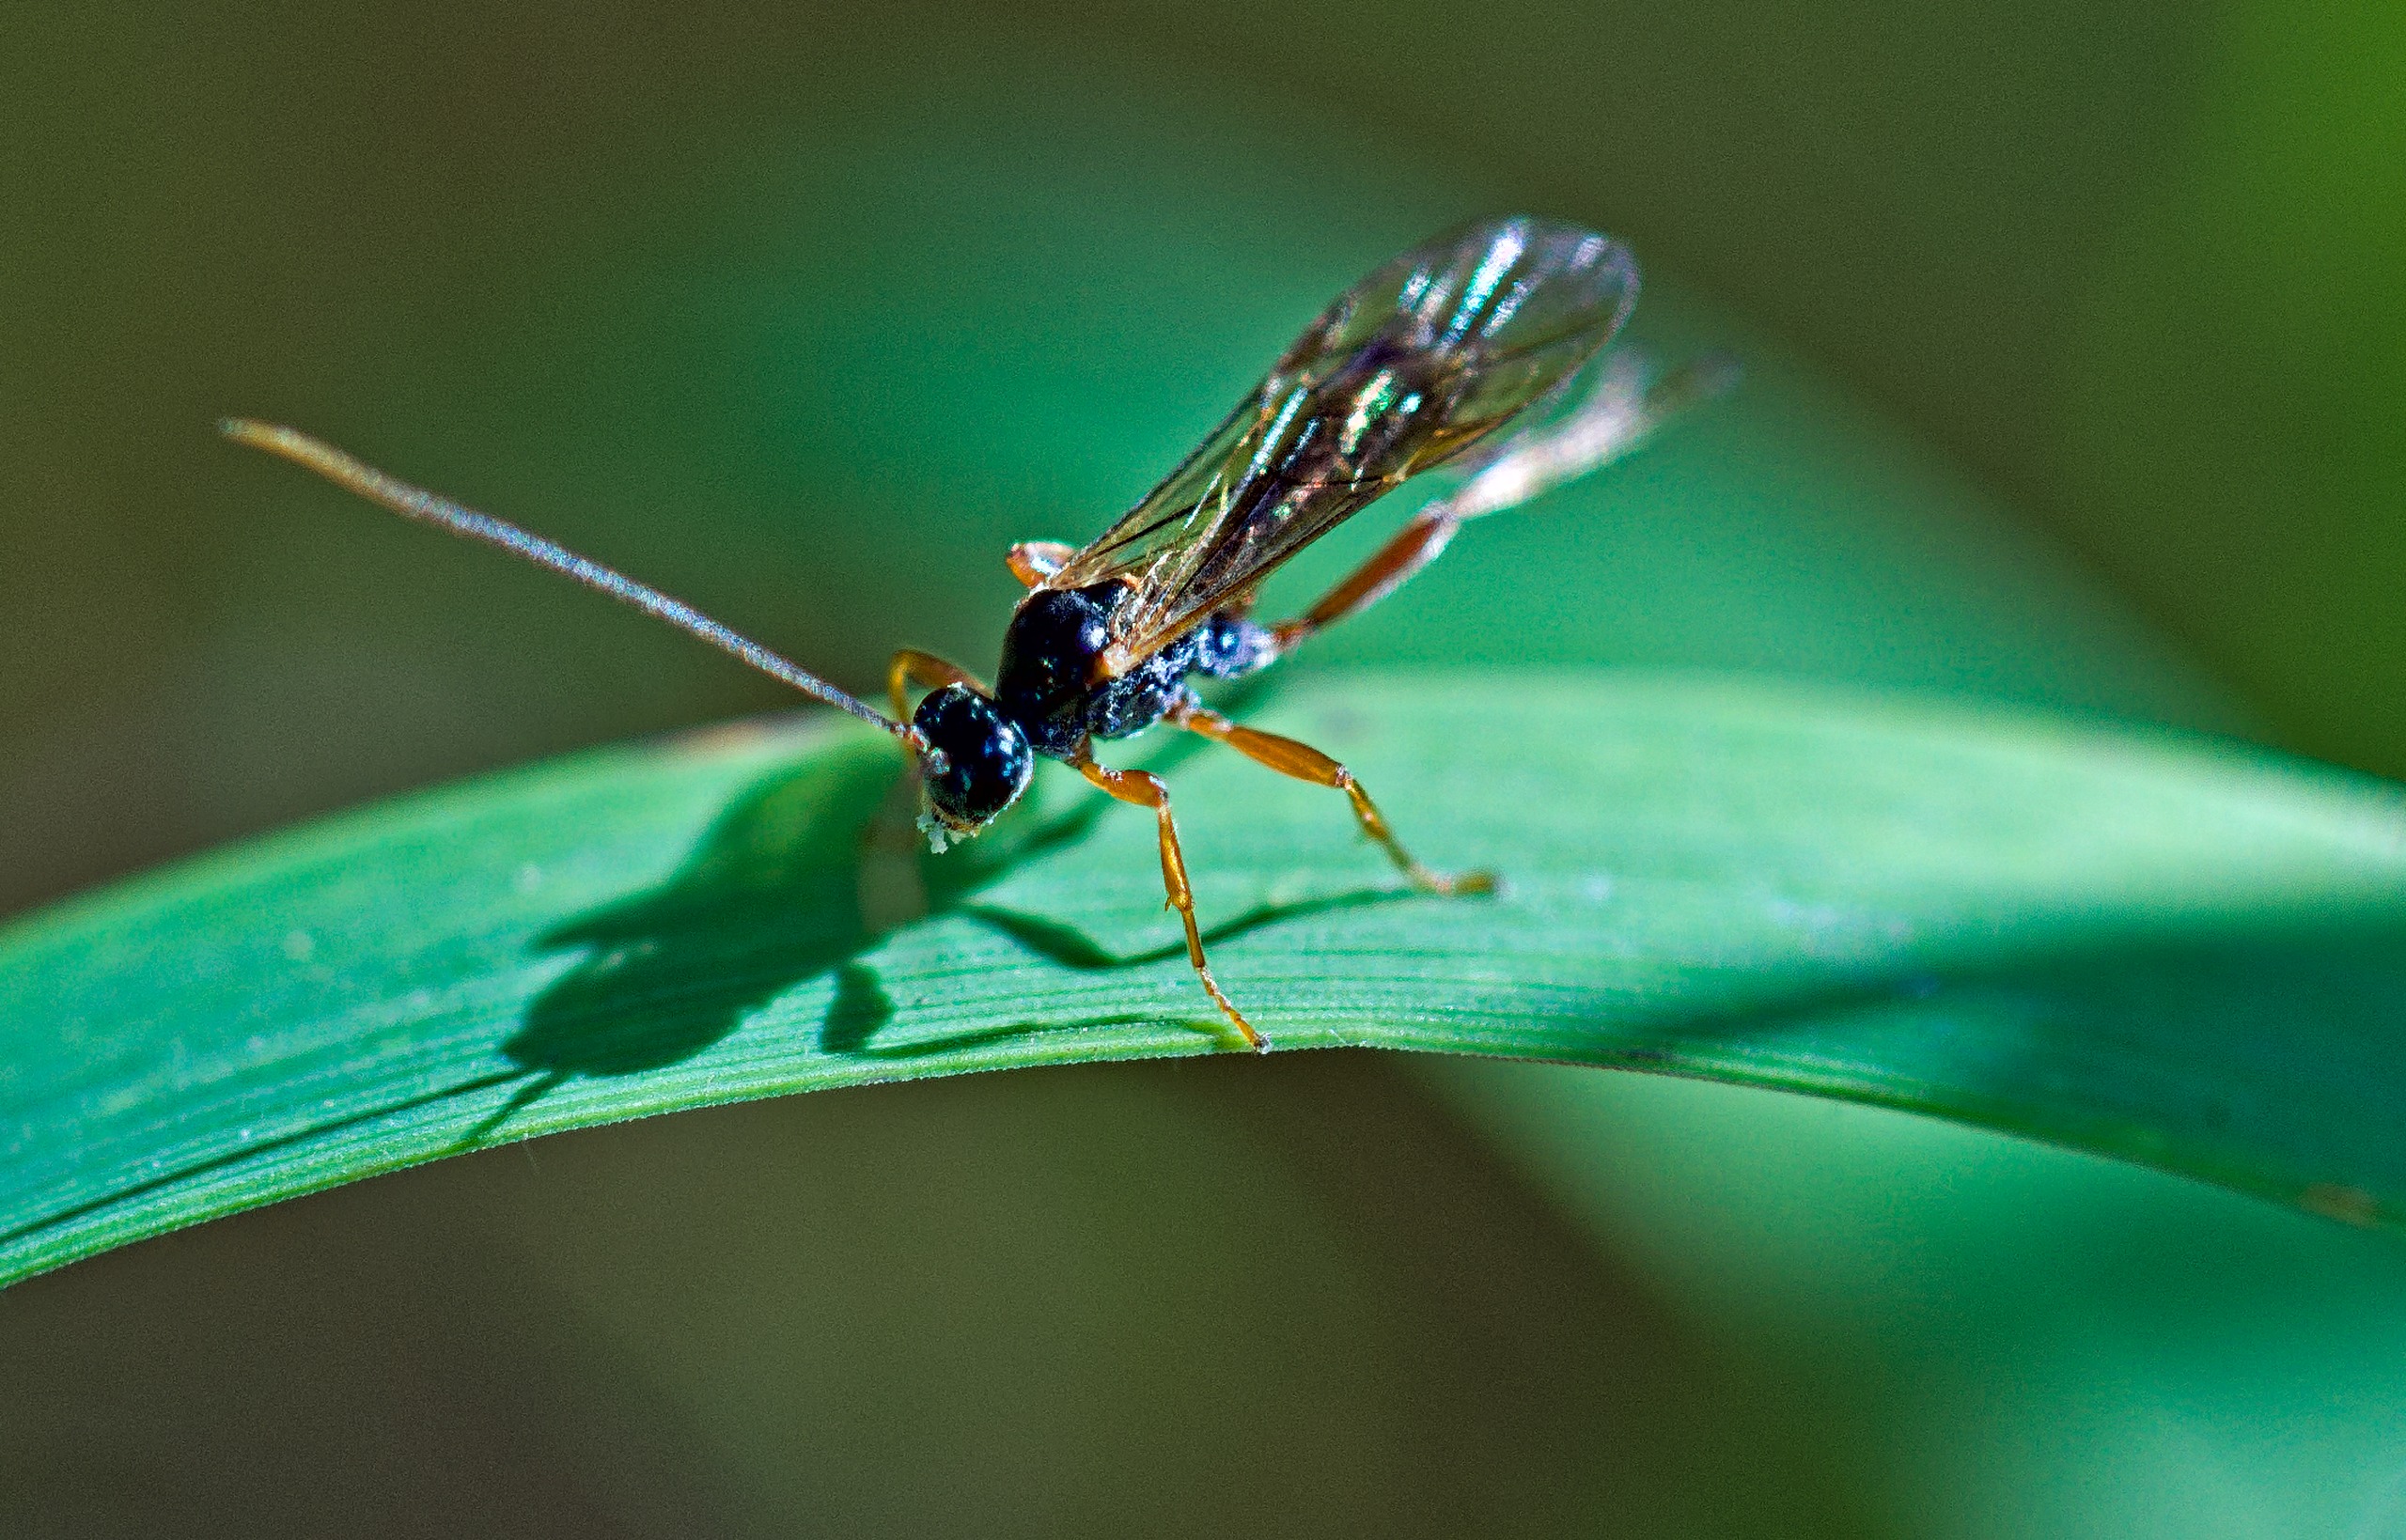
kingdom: Animalia
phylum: Arthropoda
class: Insecta
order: Hymenoptera
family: Ichneumonidae
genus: Dyspetes
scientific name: Dyspetes luteomarginatus
